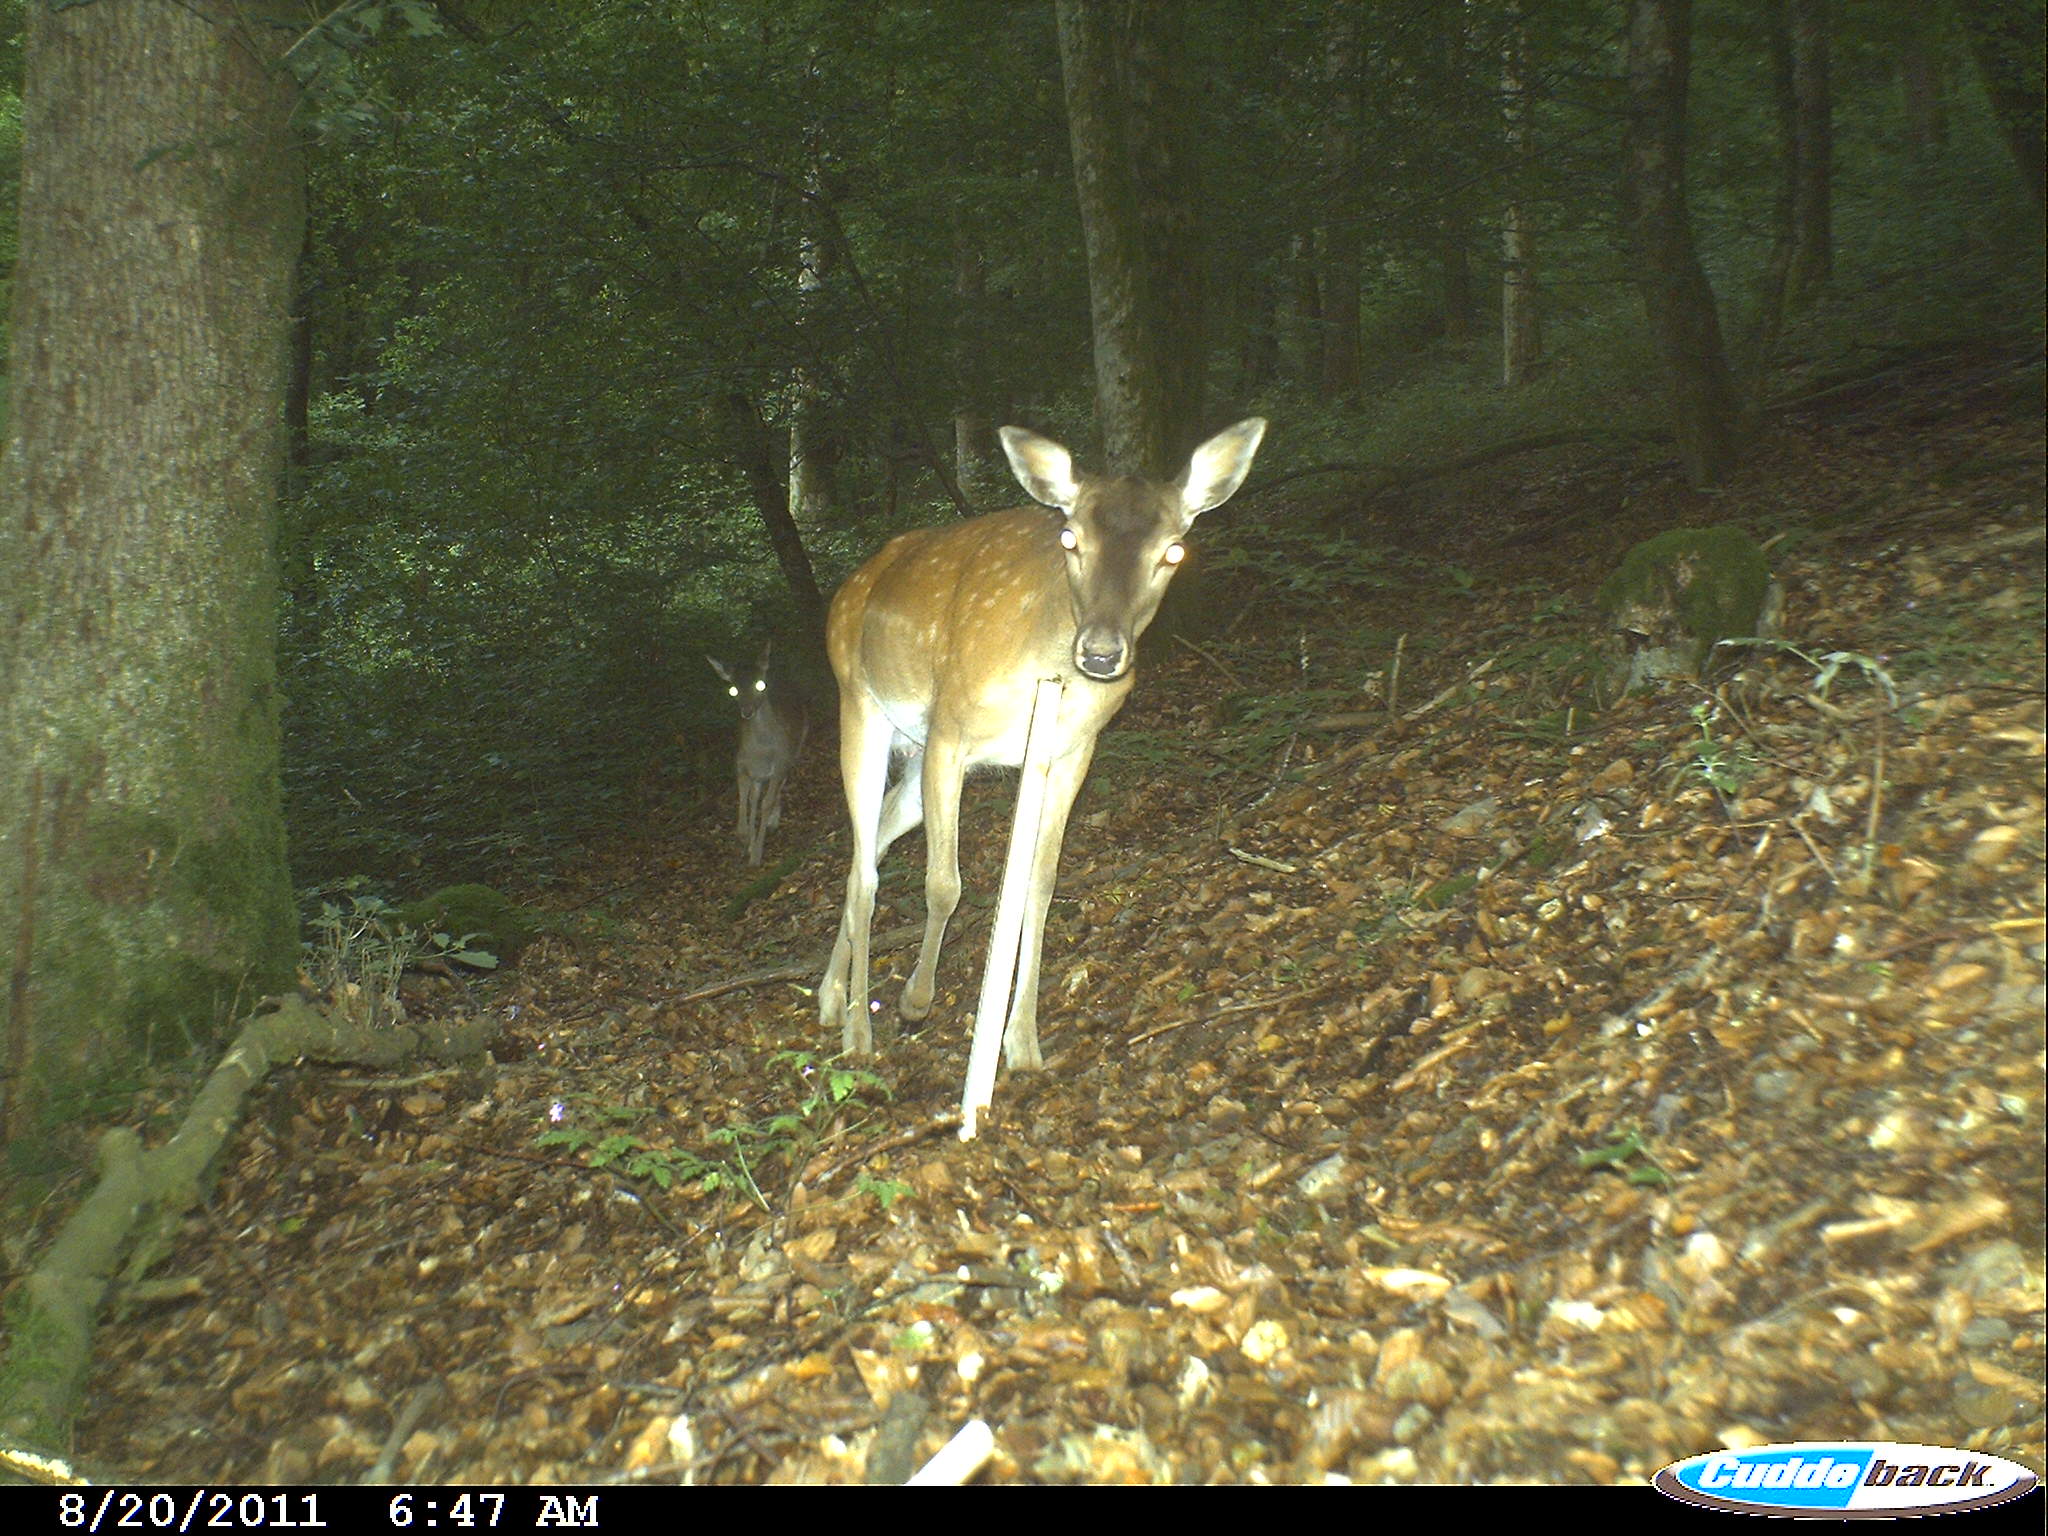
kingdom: Animalia
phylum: Chordata
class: Mammalia
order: Artiodactyla
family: Cervidae
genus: Dama
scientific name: Dama dama
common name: Fallow deer
